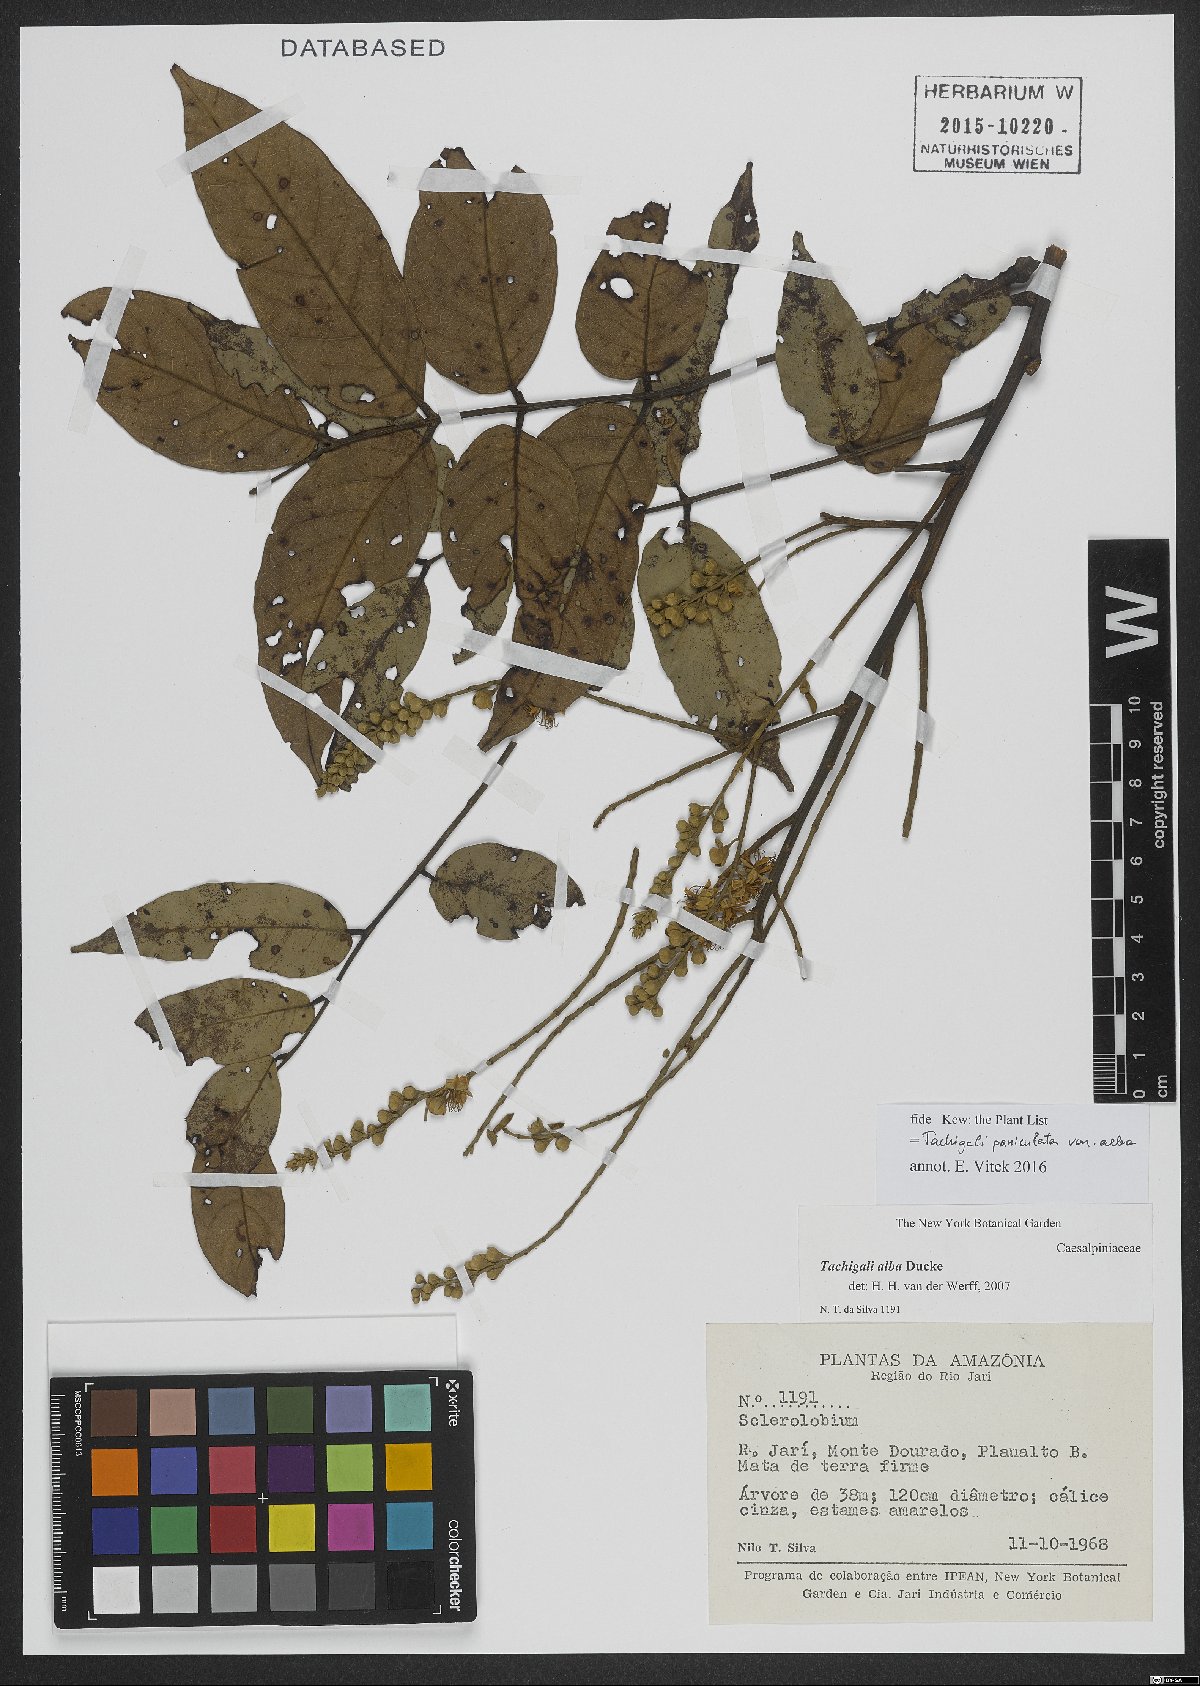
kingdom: Plantae
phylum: Tracheophyta
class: Magnoliopsida
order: Fabales
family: Fabaceae
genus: Tachigali
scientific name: Tachigali alba
